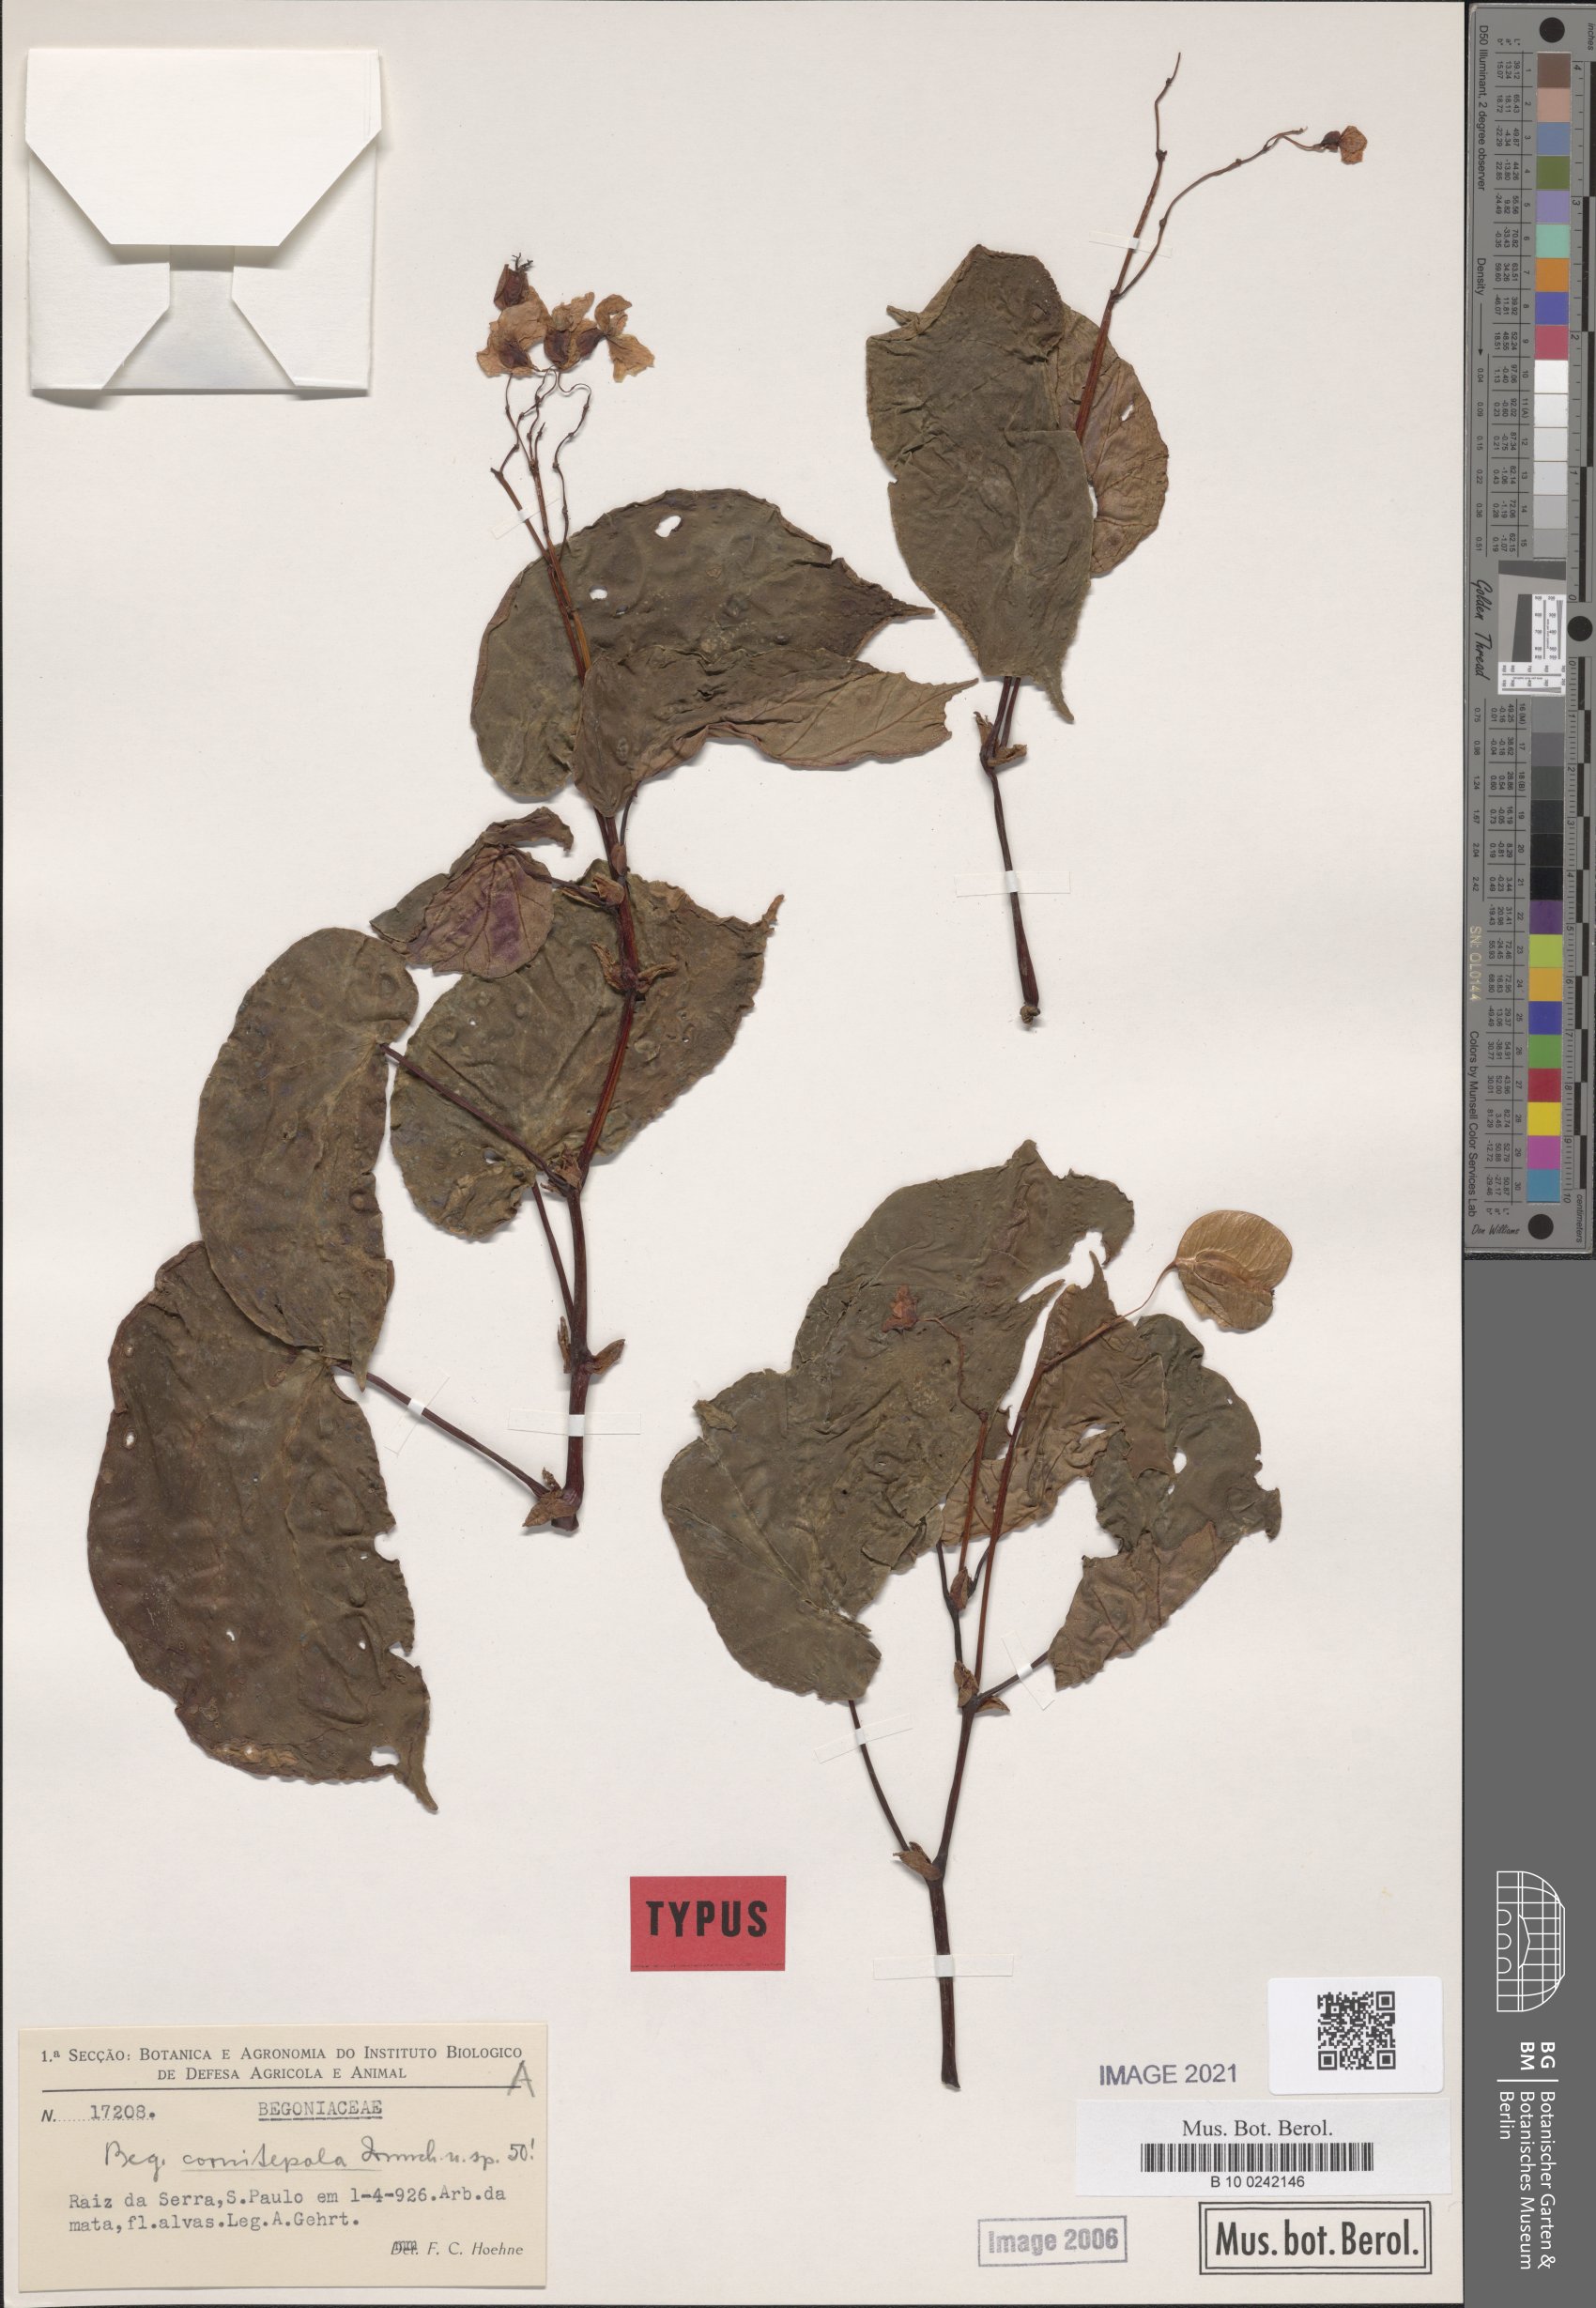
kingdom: Plantae
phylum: Tracheophyta
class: Magnoliopsida
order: Cucurbitales
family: Begoniaceae
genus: Begonia
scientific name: Begonia cornitepala
